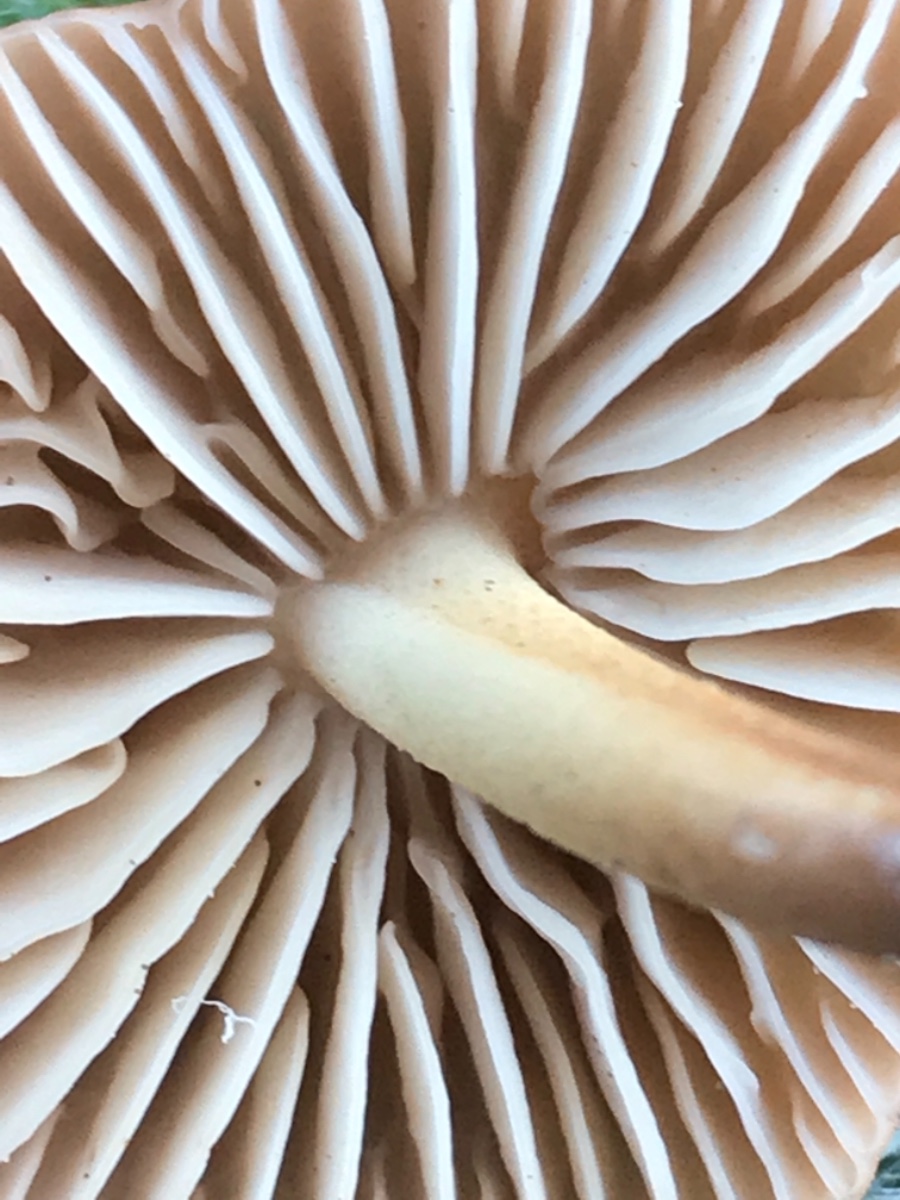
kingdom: Fungi
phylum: Basidiomycota
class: Agaricomycetes
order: Agaricales
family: Marasmiaceae
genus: Marasmius
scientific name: Marasmius oreades
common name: elledans-bruskhat
